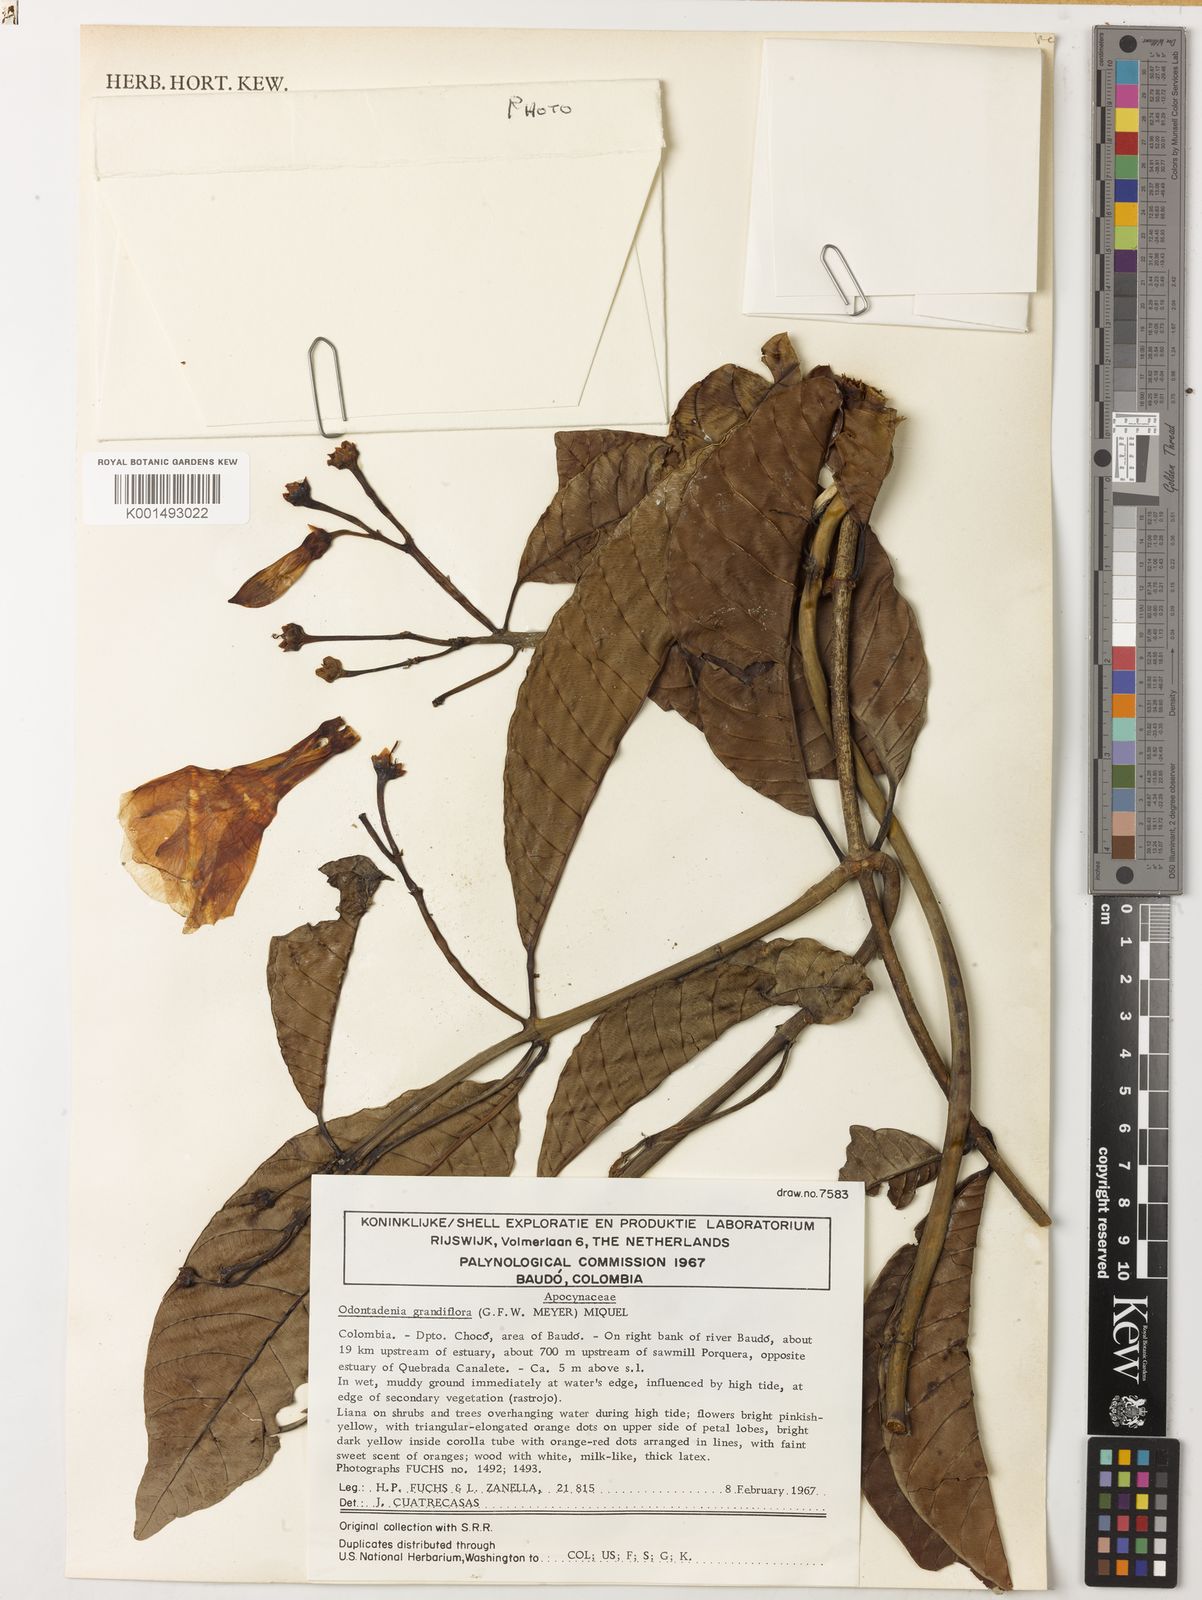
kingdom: Plantae
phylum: Tracheophyta
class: Magnoliopsida
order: Gentianales
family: Apocynaceae
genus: Odontadenia
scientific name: Odontadenia semidigyna
